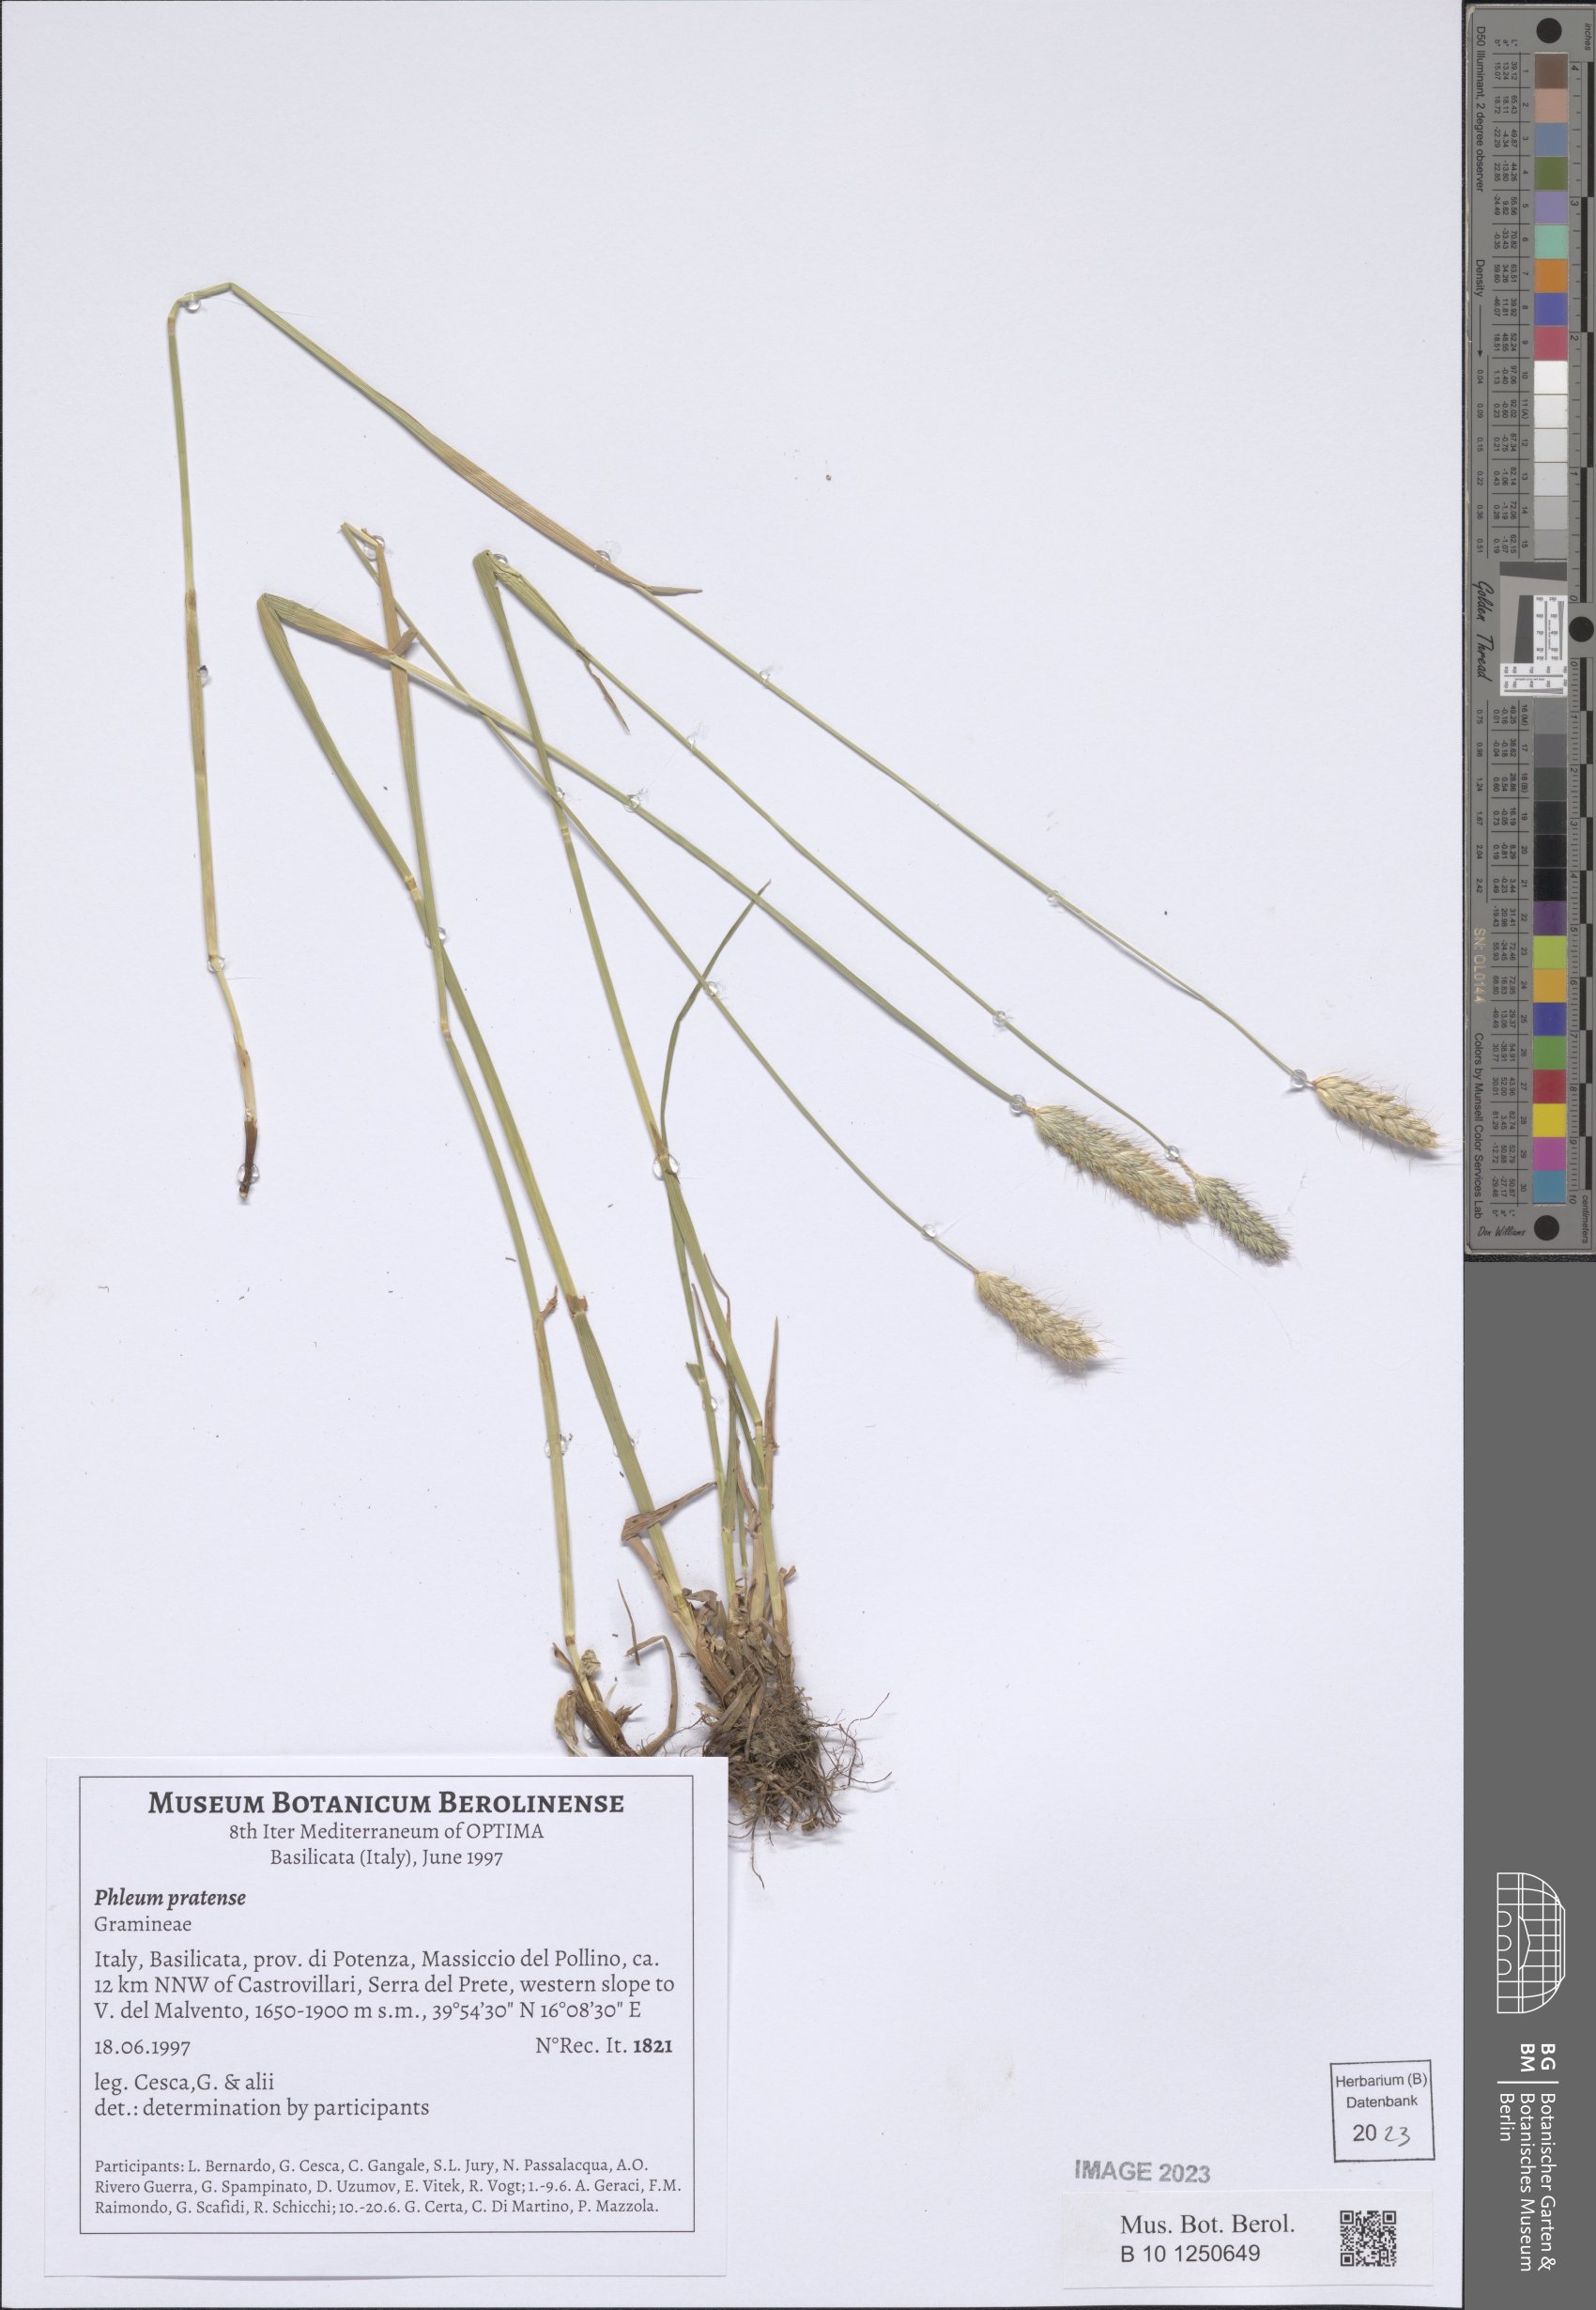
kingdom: Plantae
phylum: Tracheophyta
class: Liliopsida
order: Poales
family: Poaceae
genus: Phleum
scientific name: Phleum pratense
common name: Timothy grass
